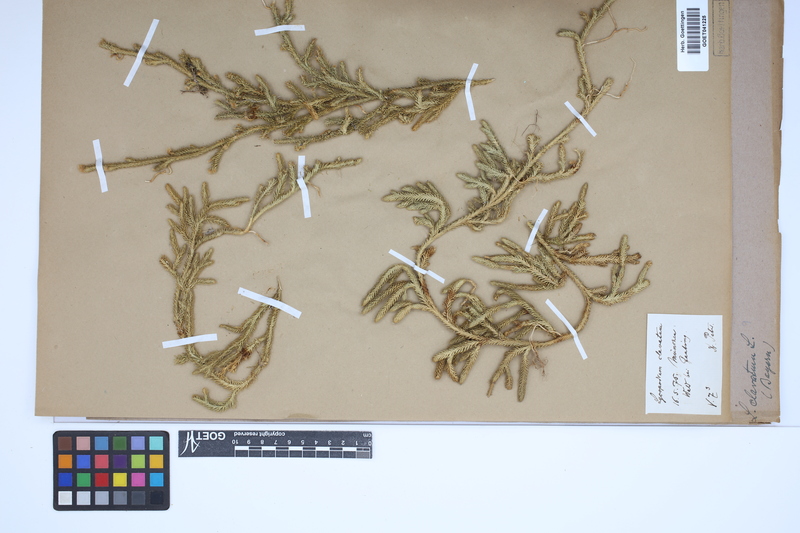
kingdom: Plantae
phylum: Tracheophyta
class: Lycopodiopsida
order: Lycopodiales
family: Lycopodiaceae
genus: Lycopodium
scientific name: Lycopodium clavatum
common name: Stag's-horn clubmoss
